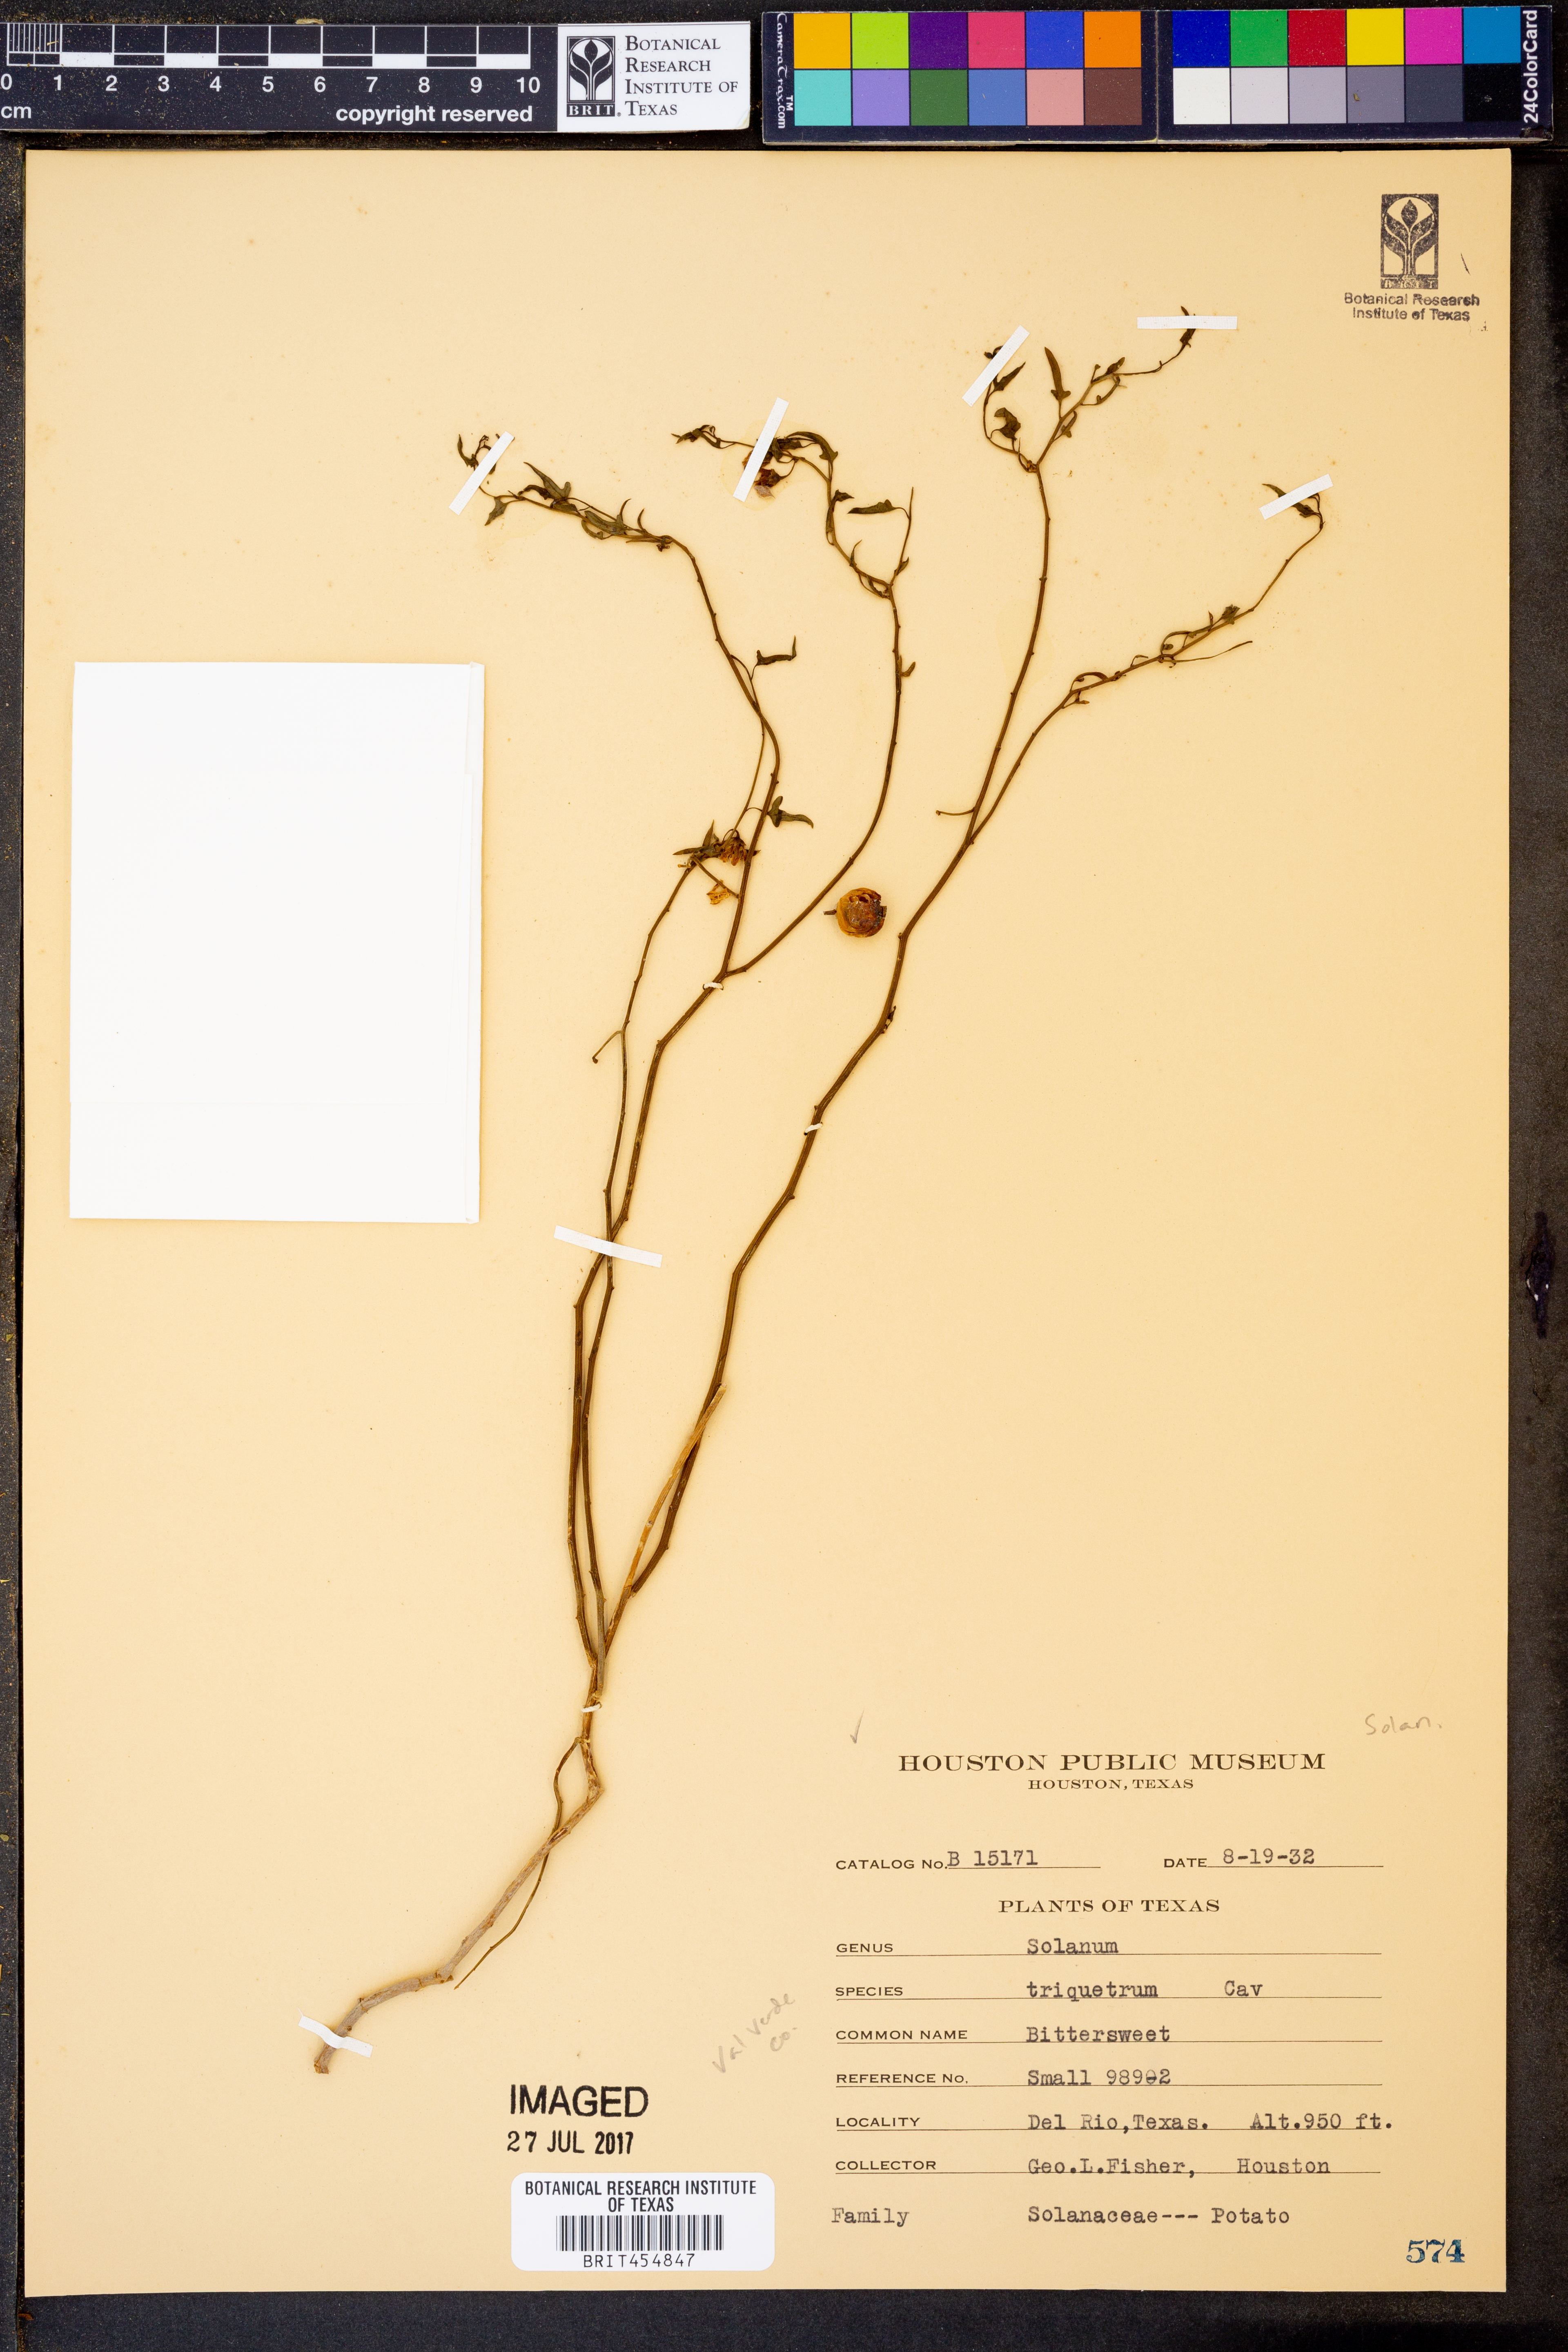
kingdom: Plantae
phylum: Tracheophyta
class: Magnoliopsida
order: Solanales
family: Solanaceae
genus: Solanum
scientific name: Solanum triquetrum
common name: Texas nightshade
